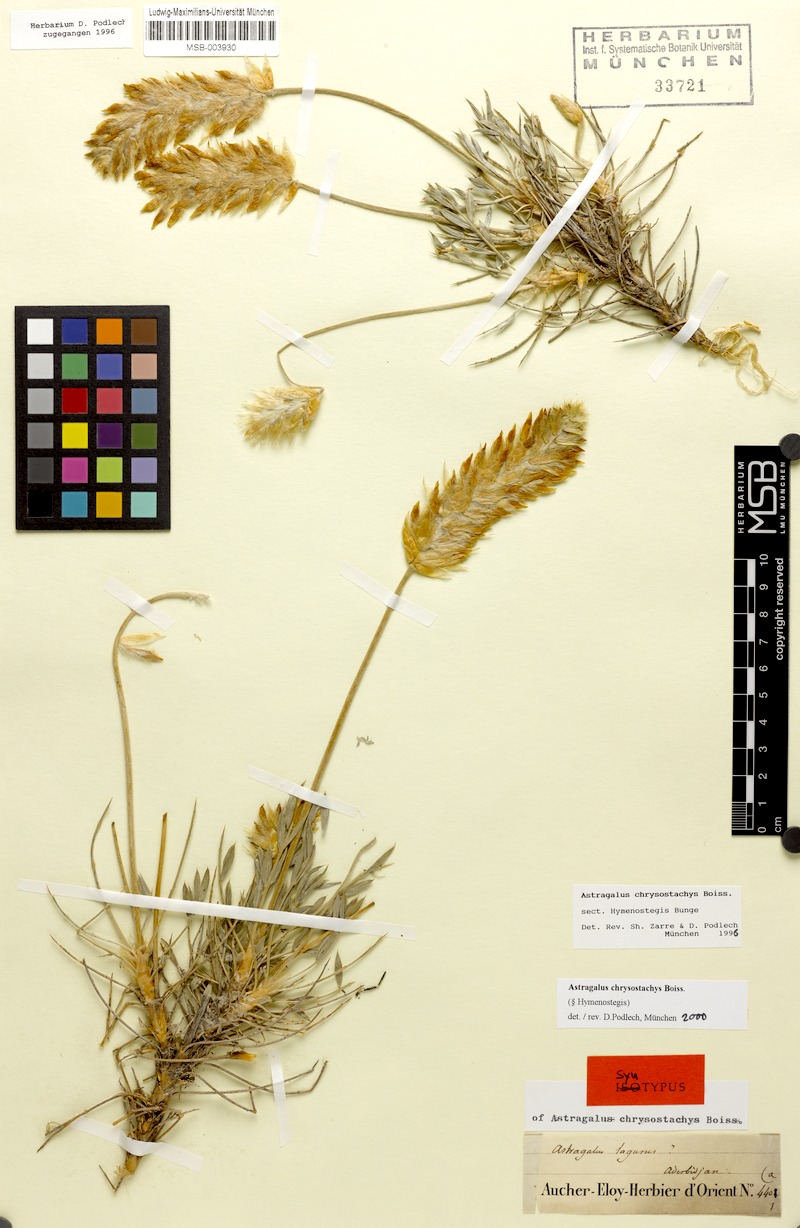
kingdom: Plantae
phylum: Tracheophyta
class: Magnoliopsida
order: Fabales
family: Fabaceae
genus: Astragalus
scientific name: Astragalus chrysostachys
